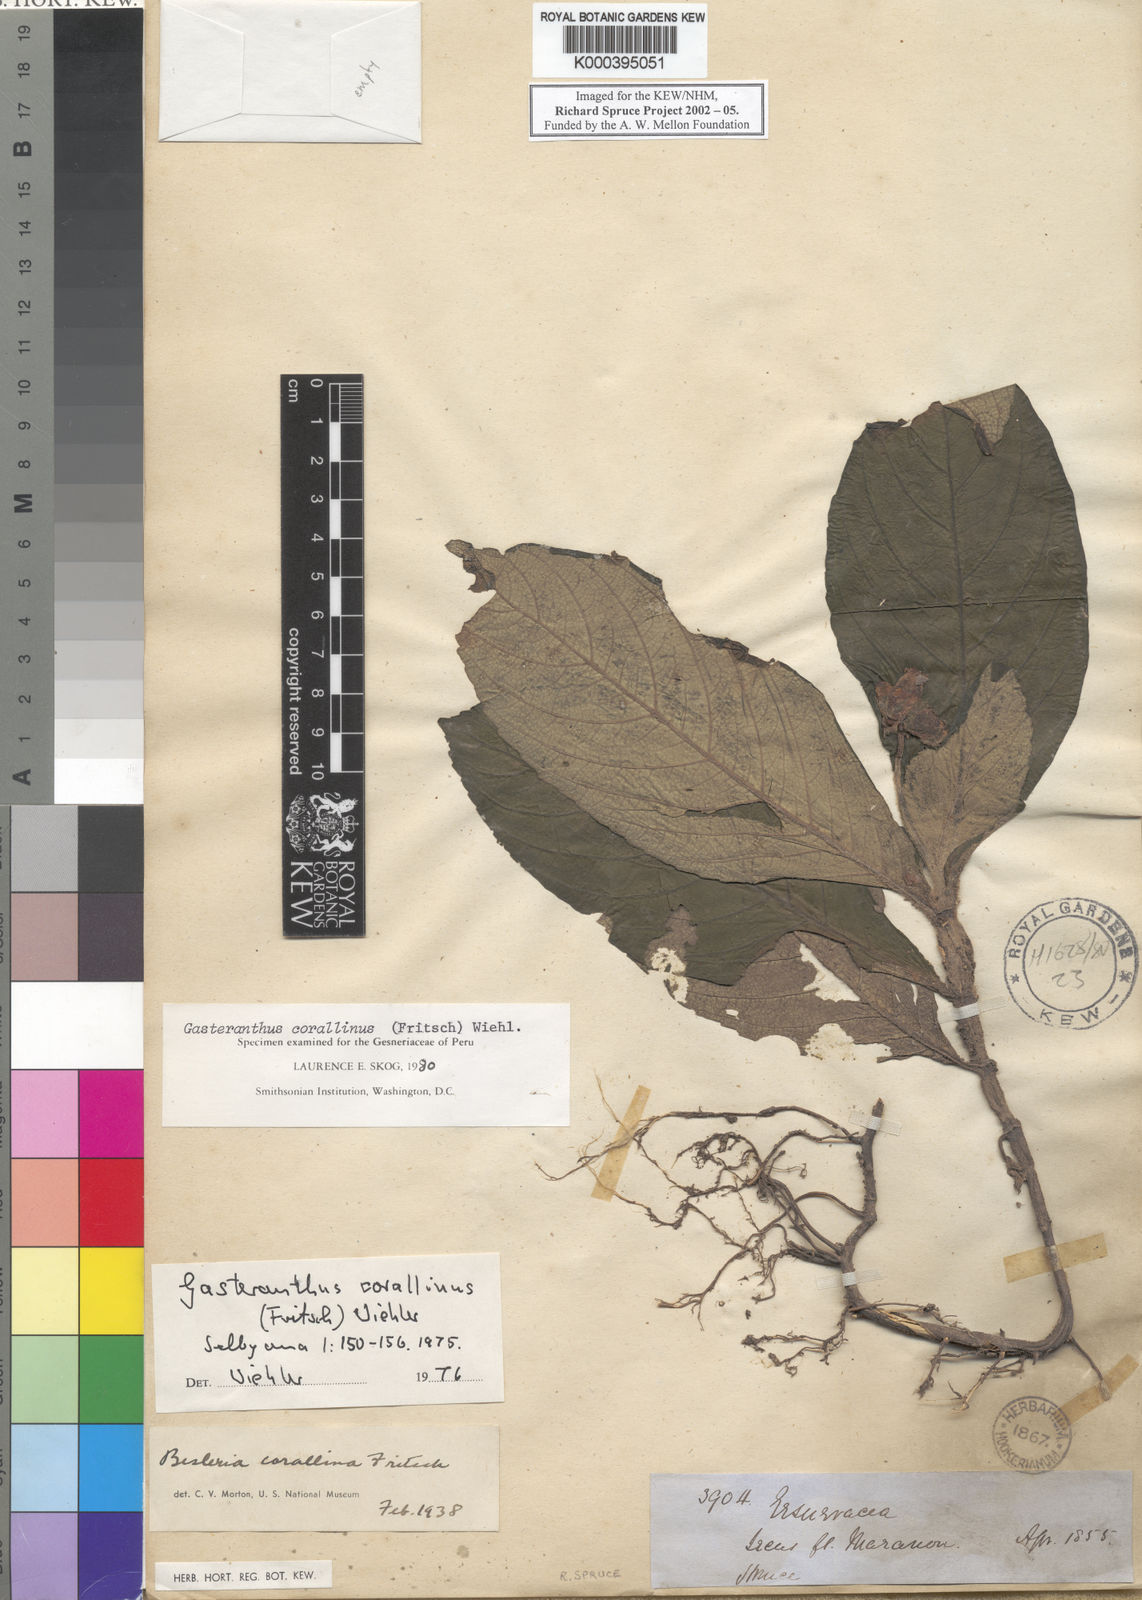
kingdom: Plantae
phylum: Tracheophyta
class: Magnoliopsida
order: Lamiales
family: Gesneriaceae
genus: Gasteranthus
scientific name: Gasteranthus corallinus
